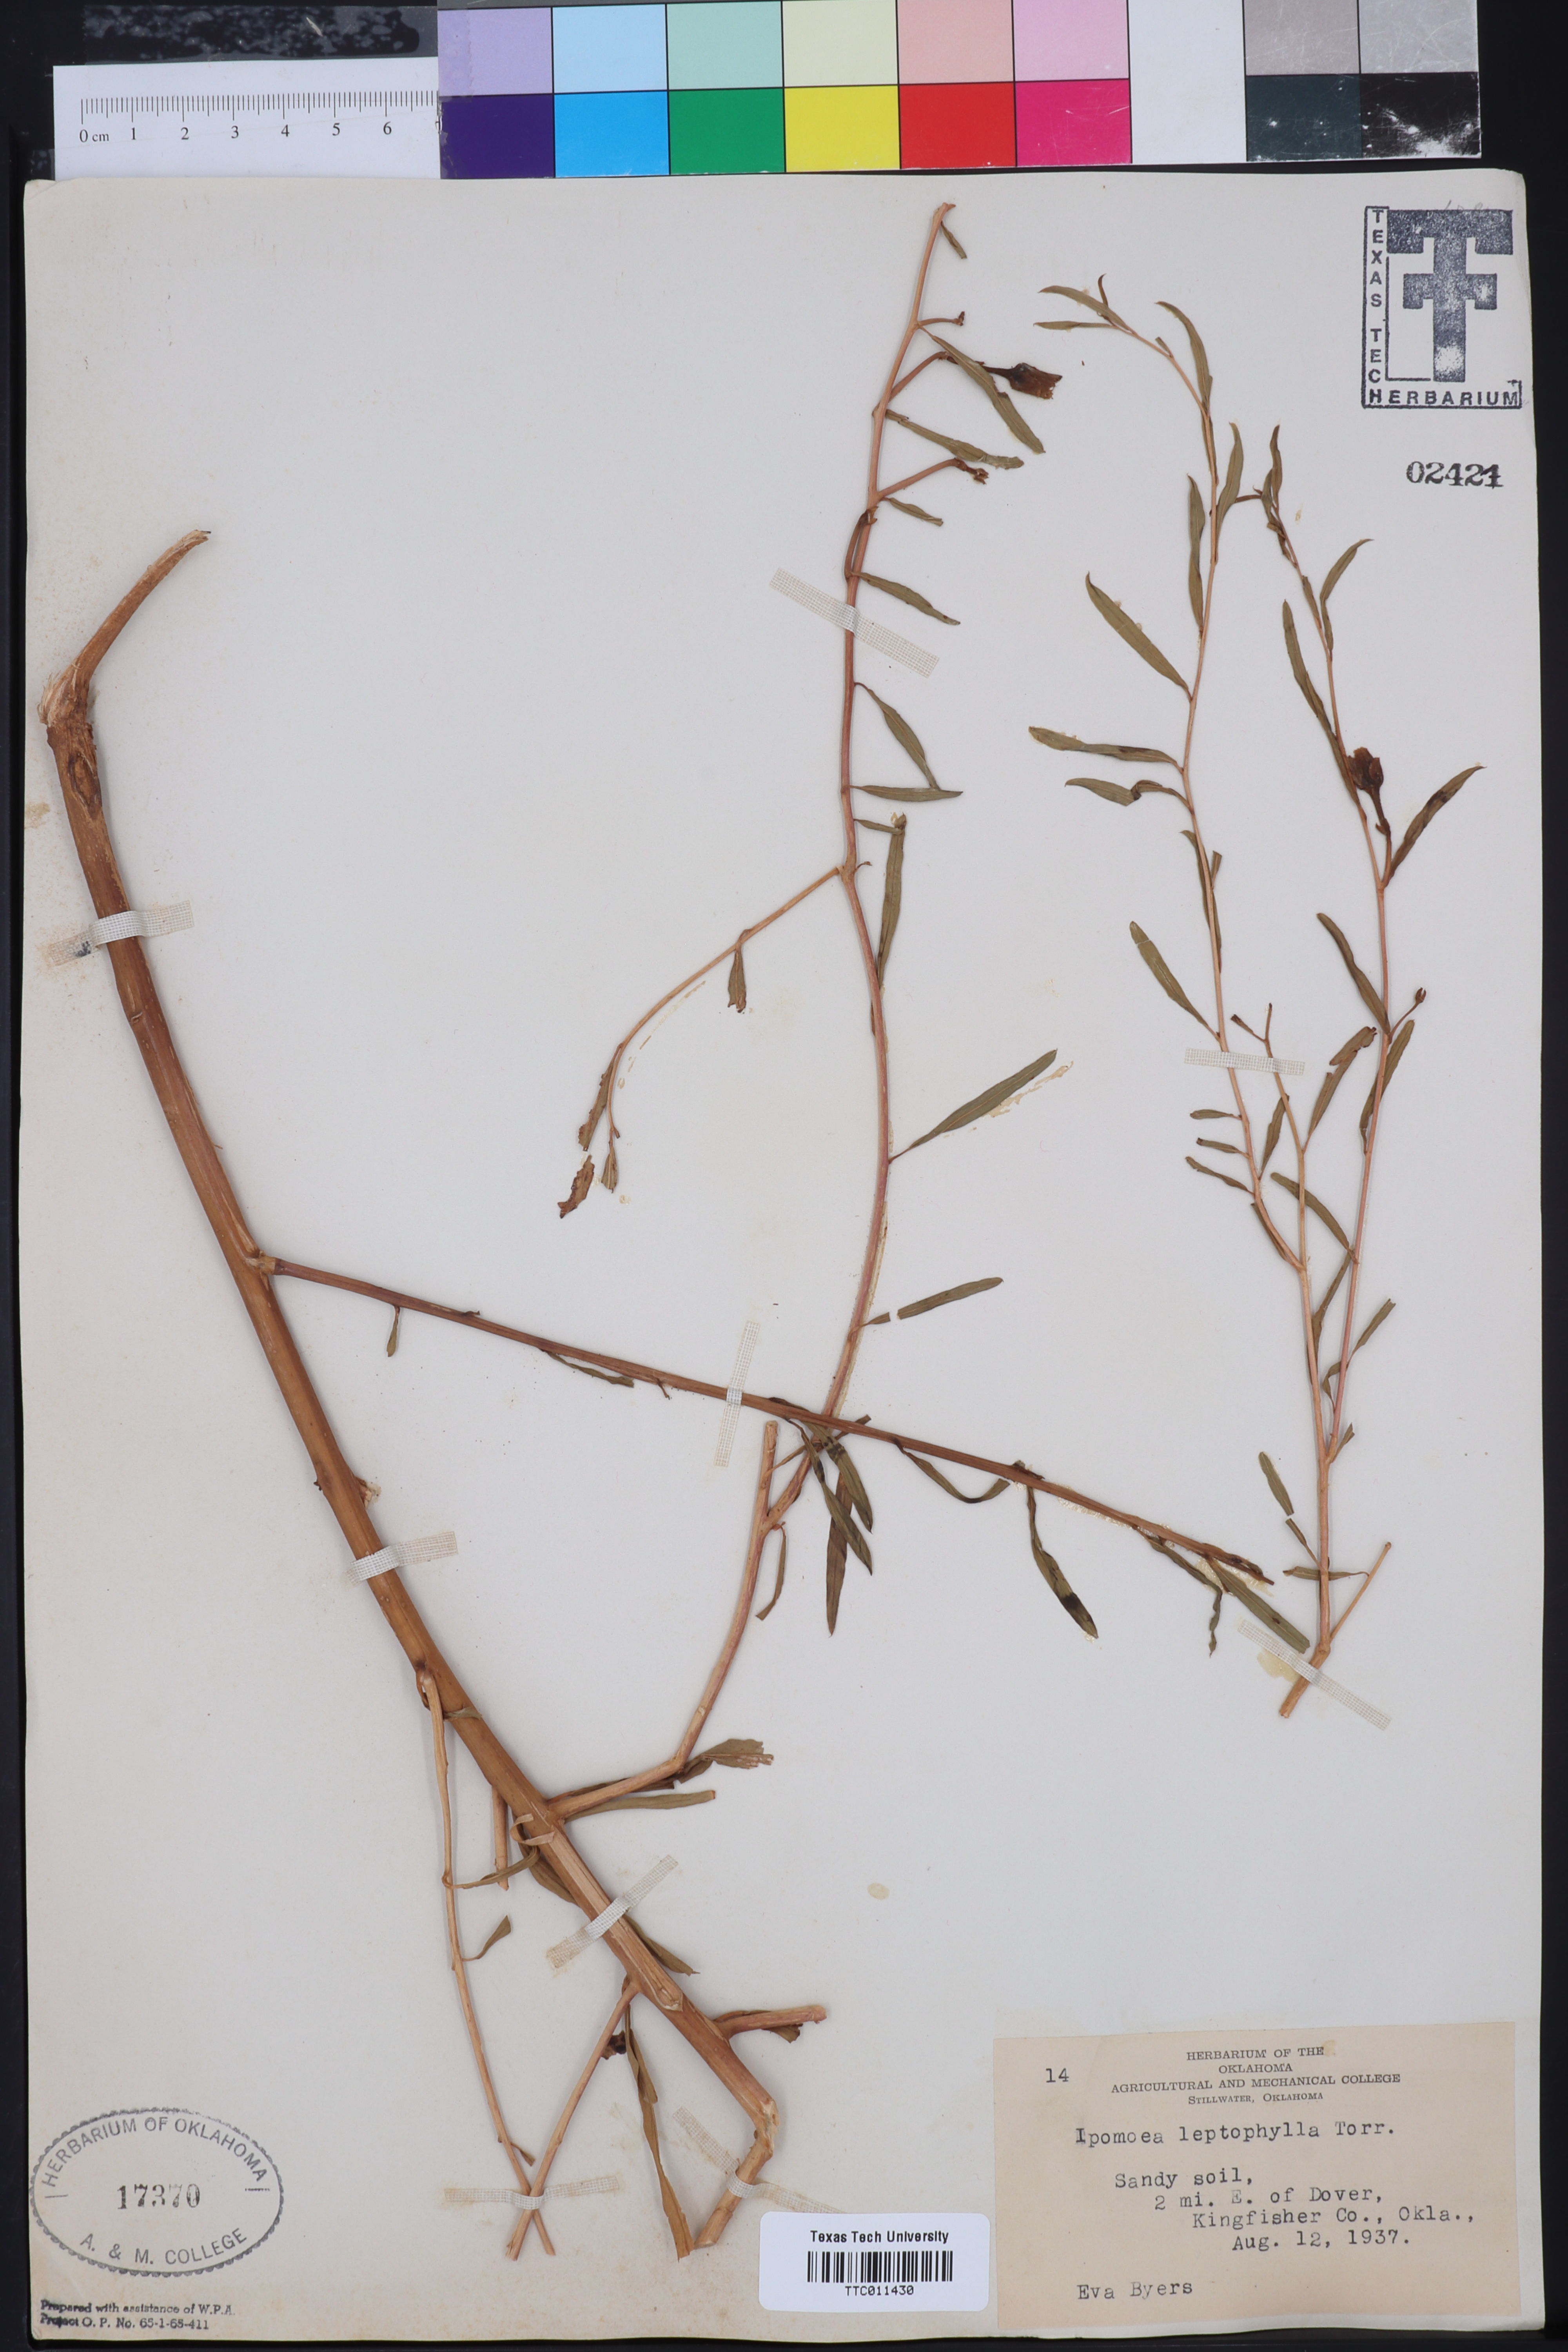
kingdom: Plantae
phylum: Tracheophyta
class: Magnoliopsida
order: Solanales
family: Convolvulaceae
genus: Ipomoea
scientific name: Ipomoea leptophylla
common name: Bush moonflower
